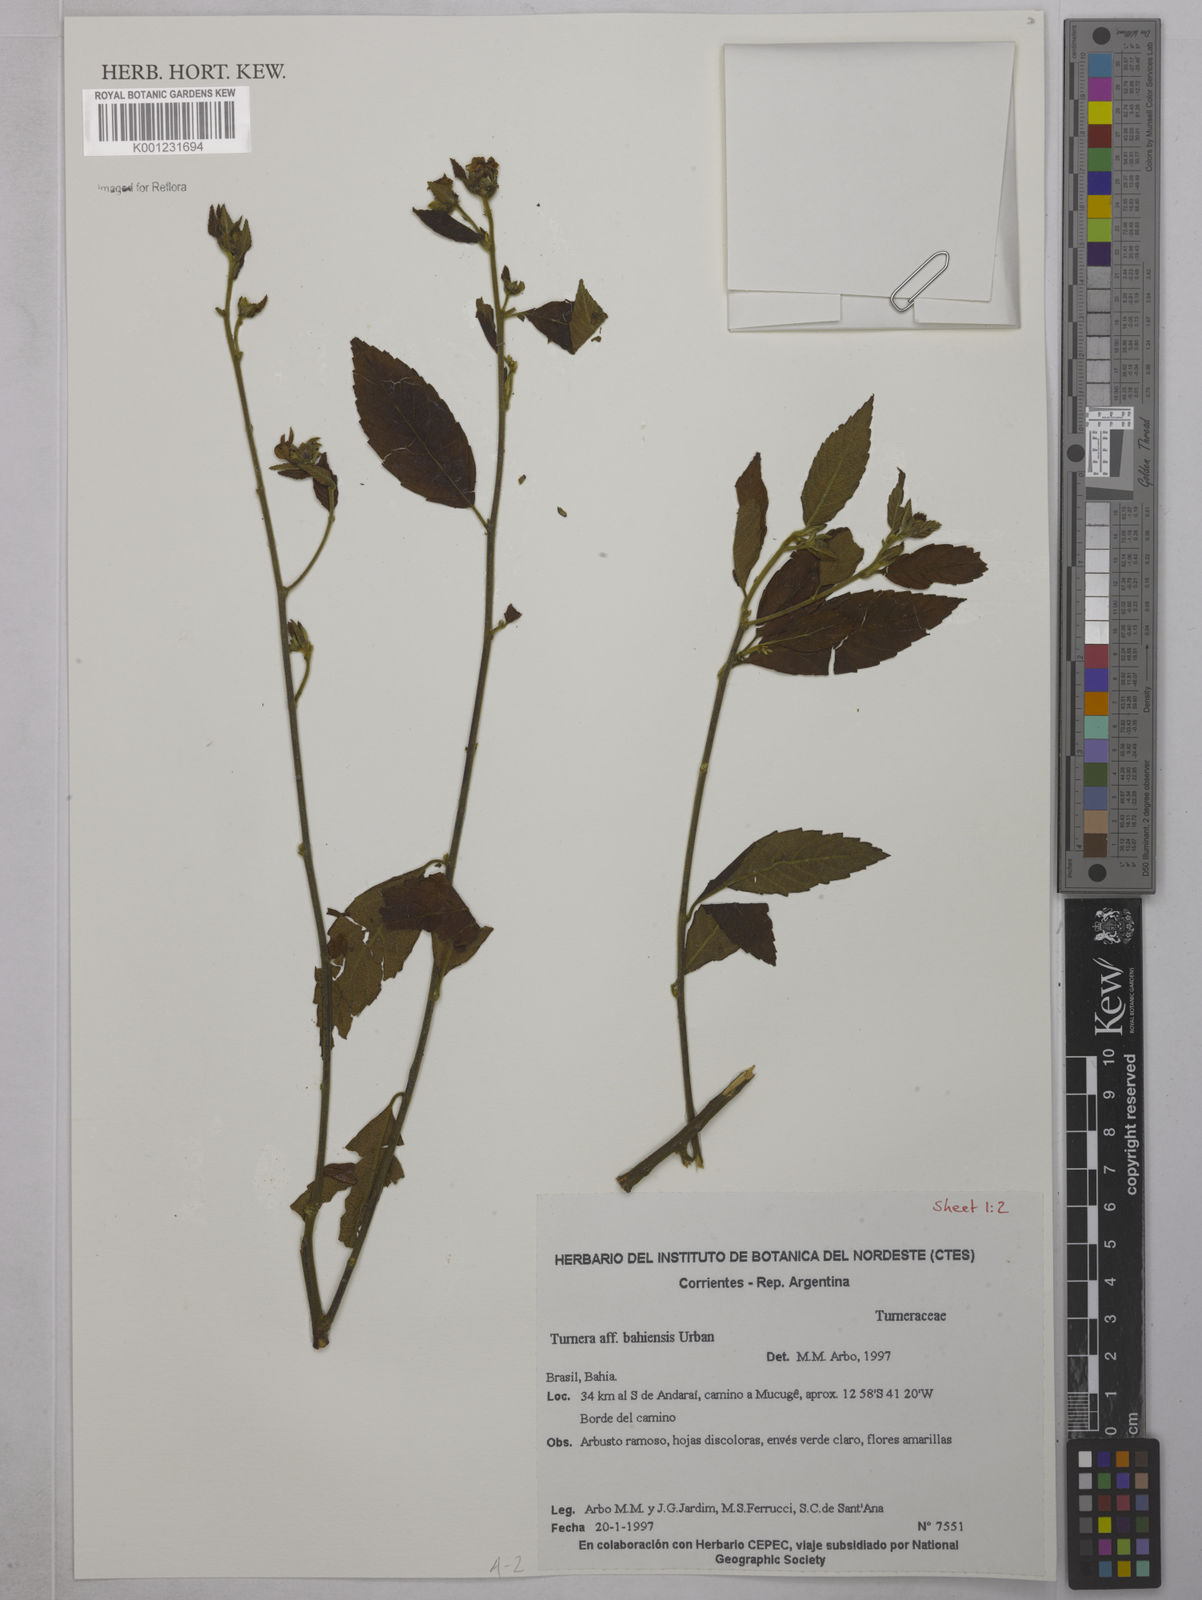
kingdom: Plantae
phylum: Tracheophyta
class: Magnoliopsida
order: Malpighiales
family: Turneraceae
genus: Turnera
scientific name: Turnera bahiensis
